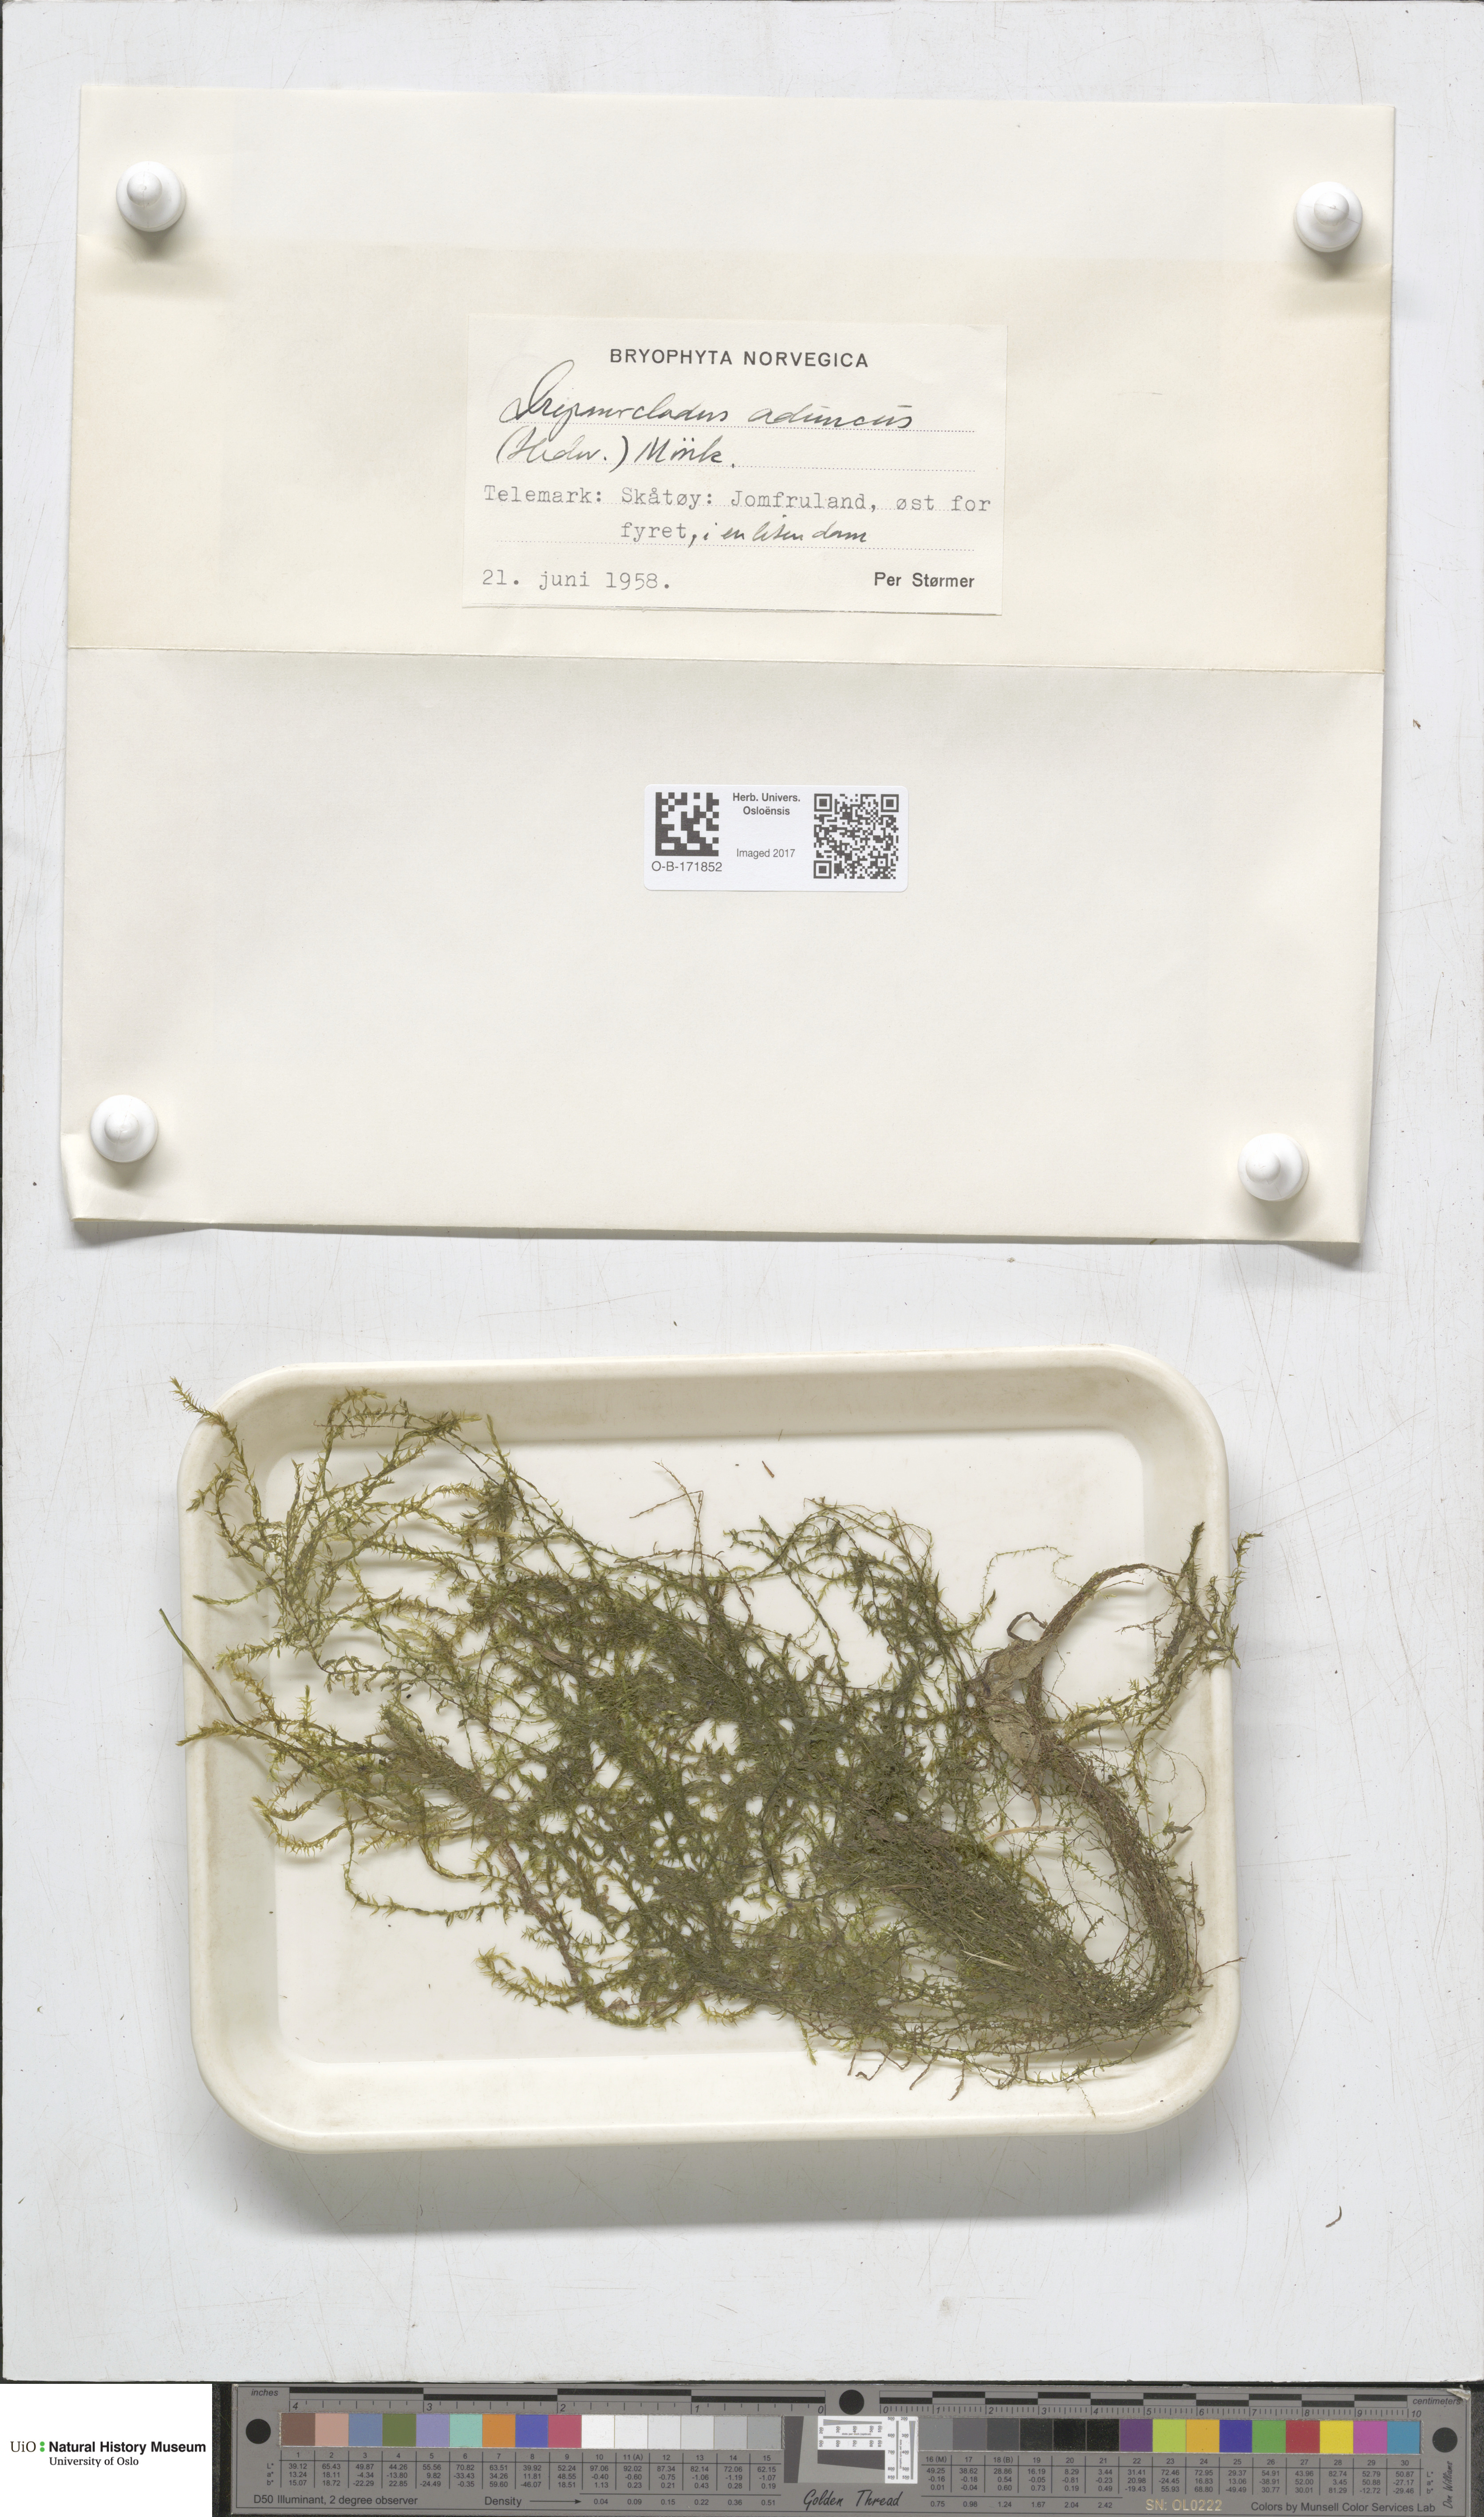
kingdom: Plantae
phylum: Bryophyta
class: Bryopsida
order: Hypnales
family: Amblystegiaceae
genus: Drepanocladus
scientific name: Drepanocladus aduncus
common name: Knieff's hook moss
